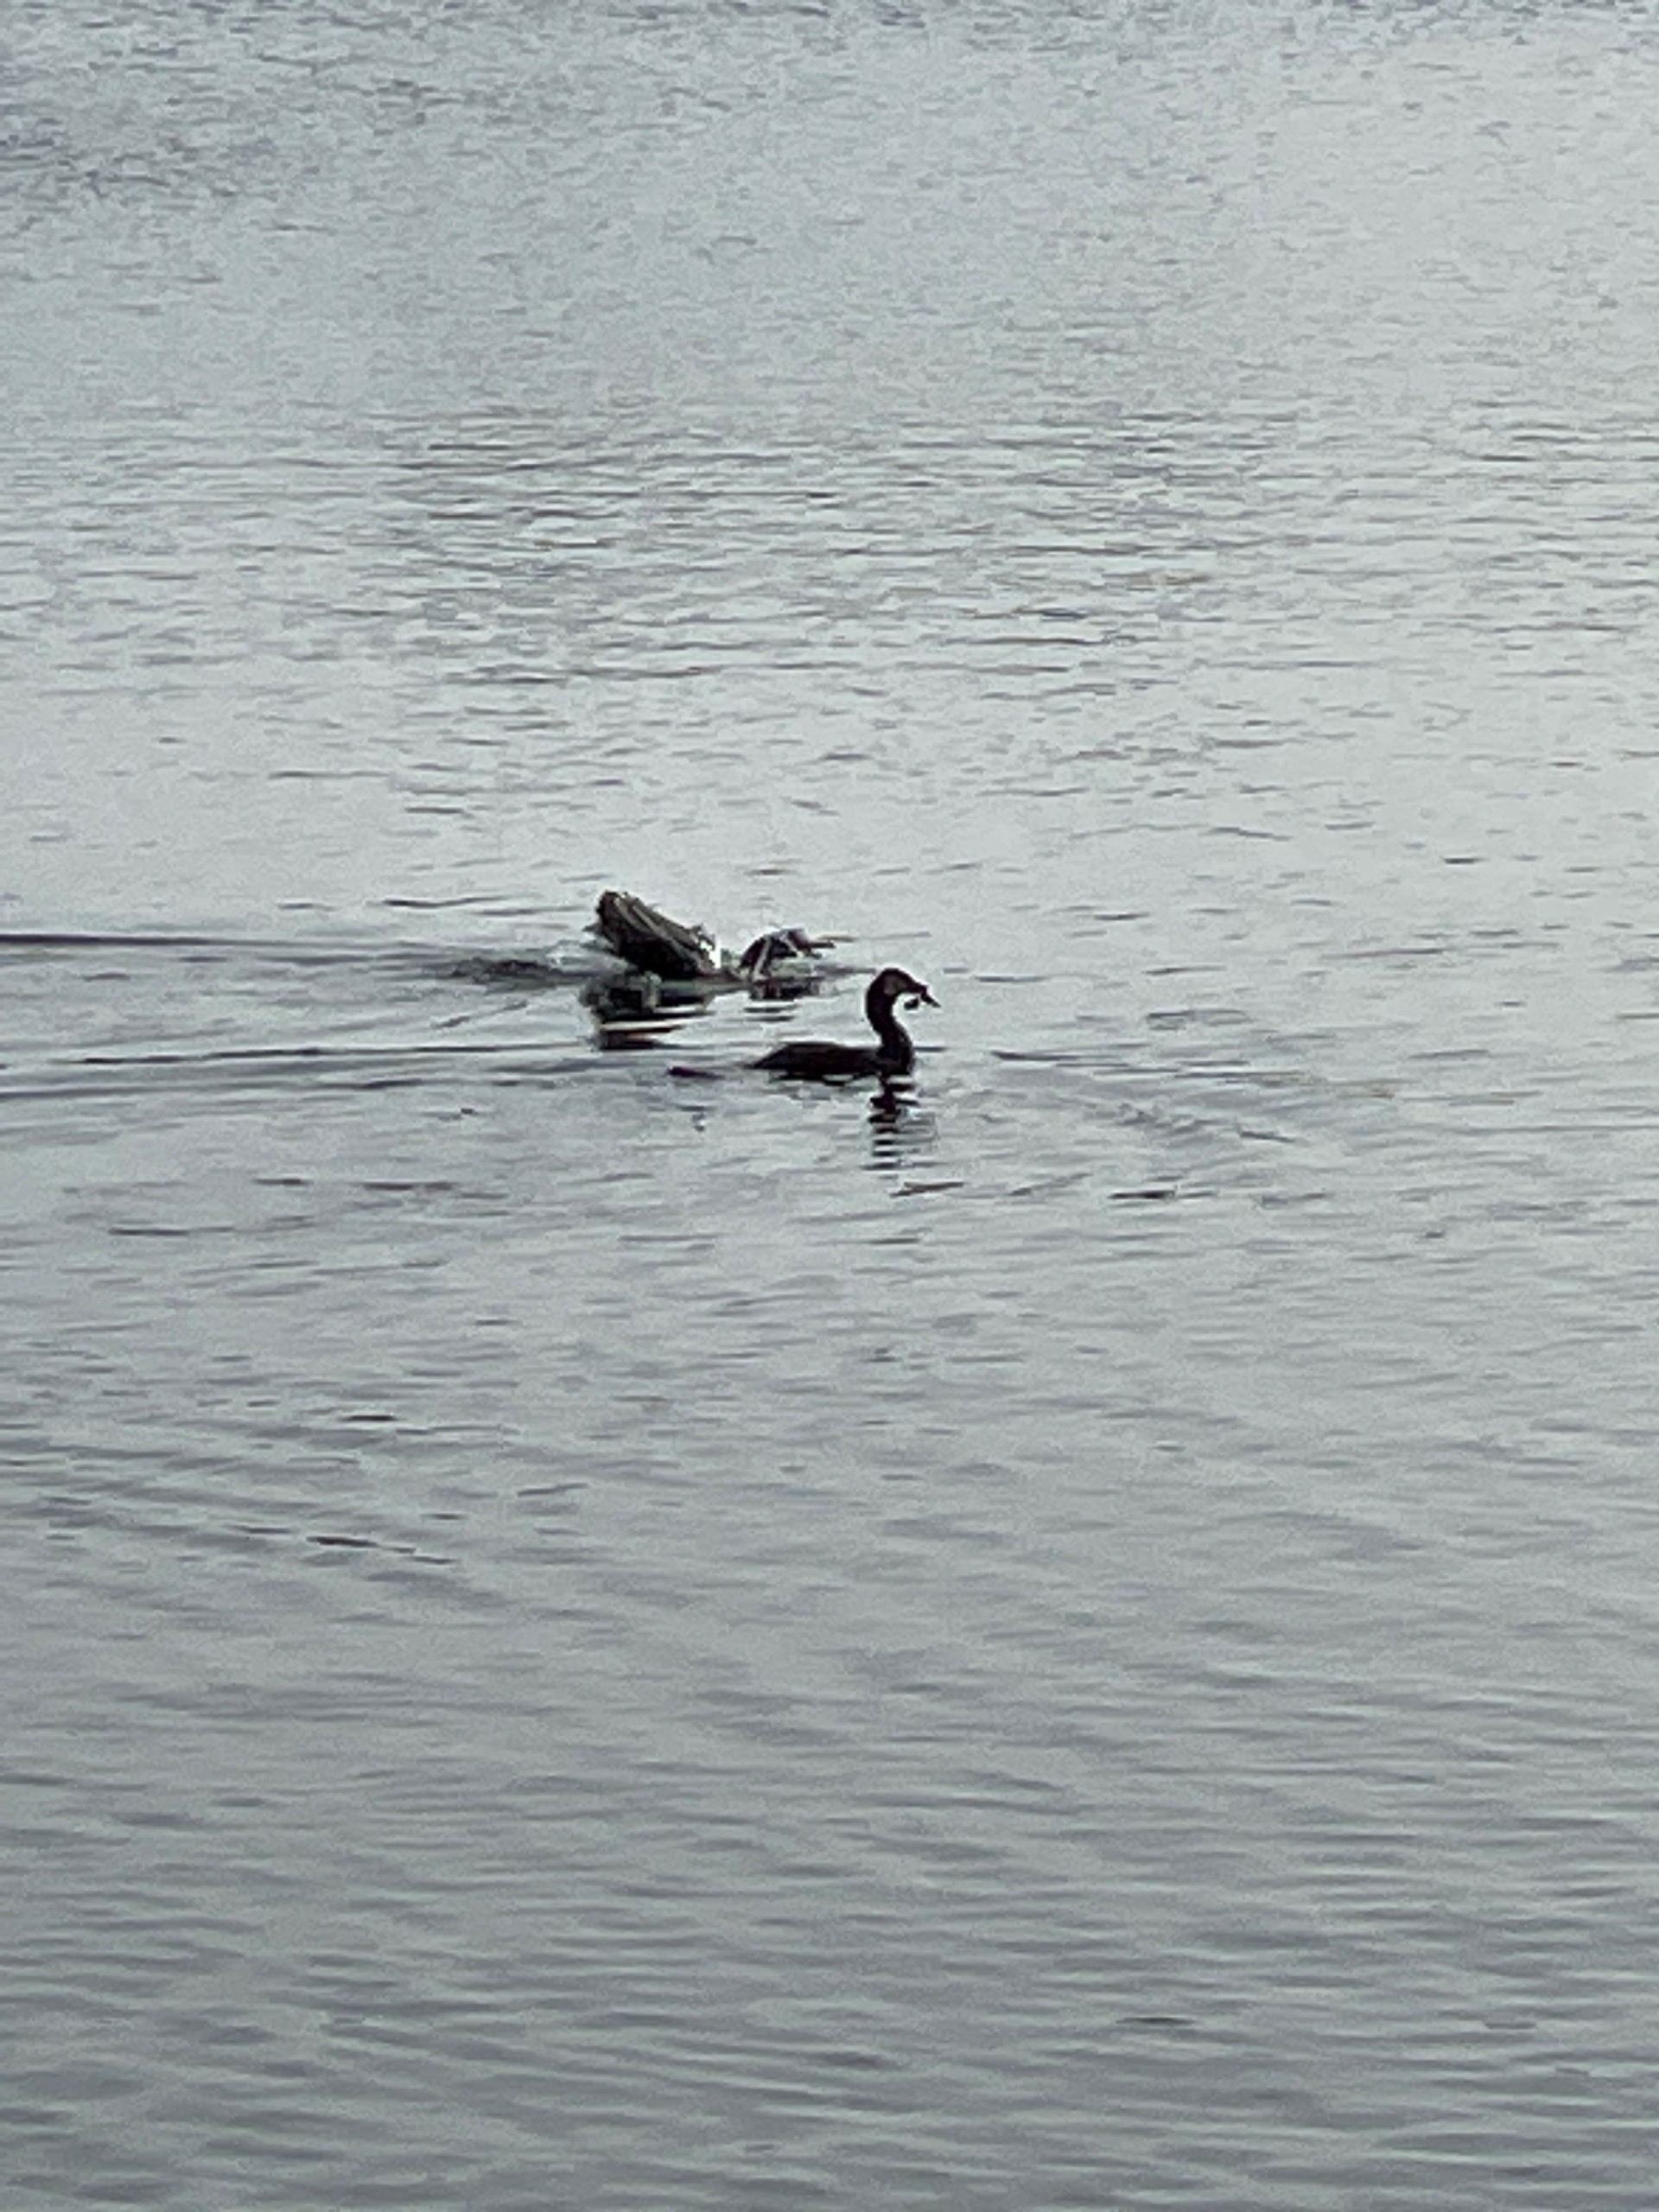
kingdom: Animalia
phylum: Chordata
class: Aves
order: Podicipediformes
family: Podicipedidae
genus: Podiceps
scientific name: Podiceps grisegena
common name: Gråstrubet lappedykker
